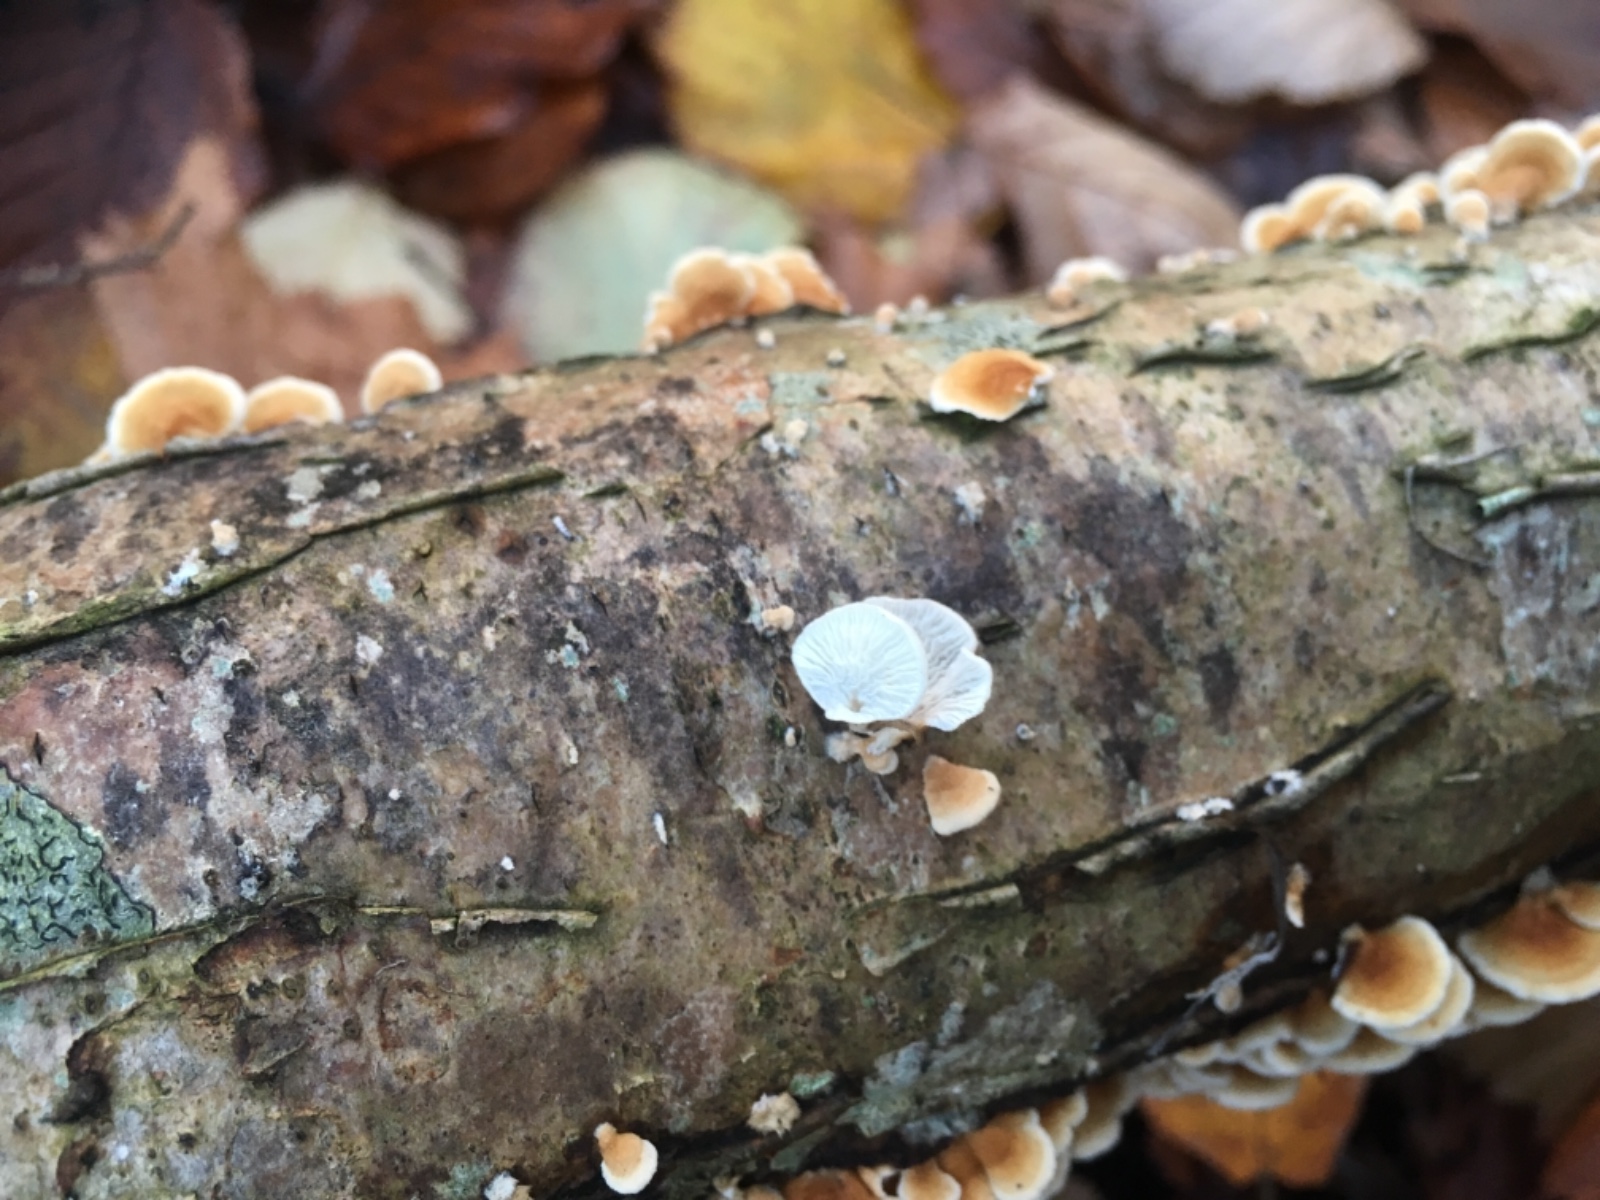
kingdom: Fungi
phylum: Basidiomycota
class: Agaricomycetes
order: Amylocorticiales
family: Amylocorticiaceae
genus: Plicaturopsis
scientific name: Plicaturopsis crispa
